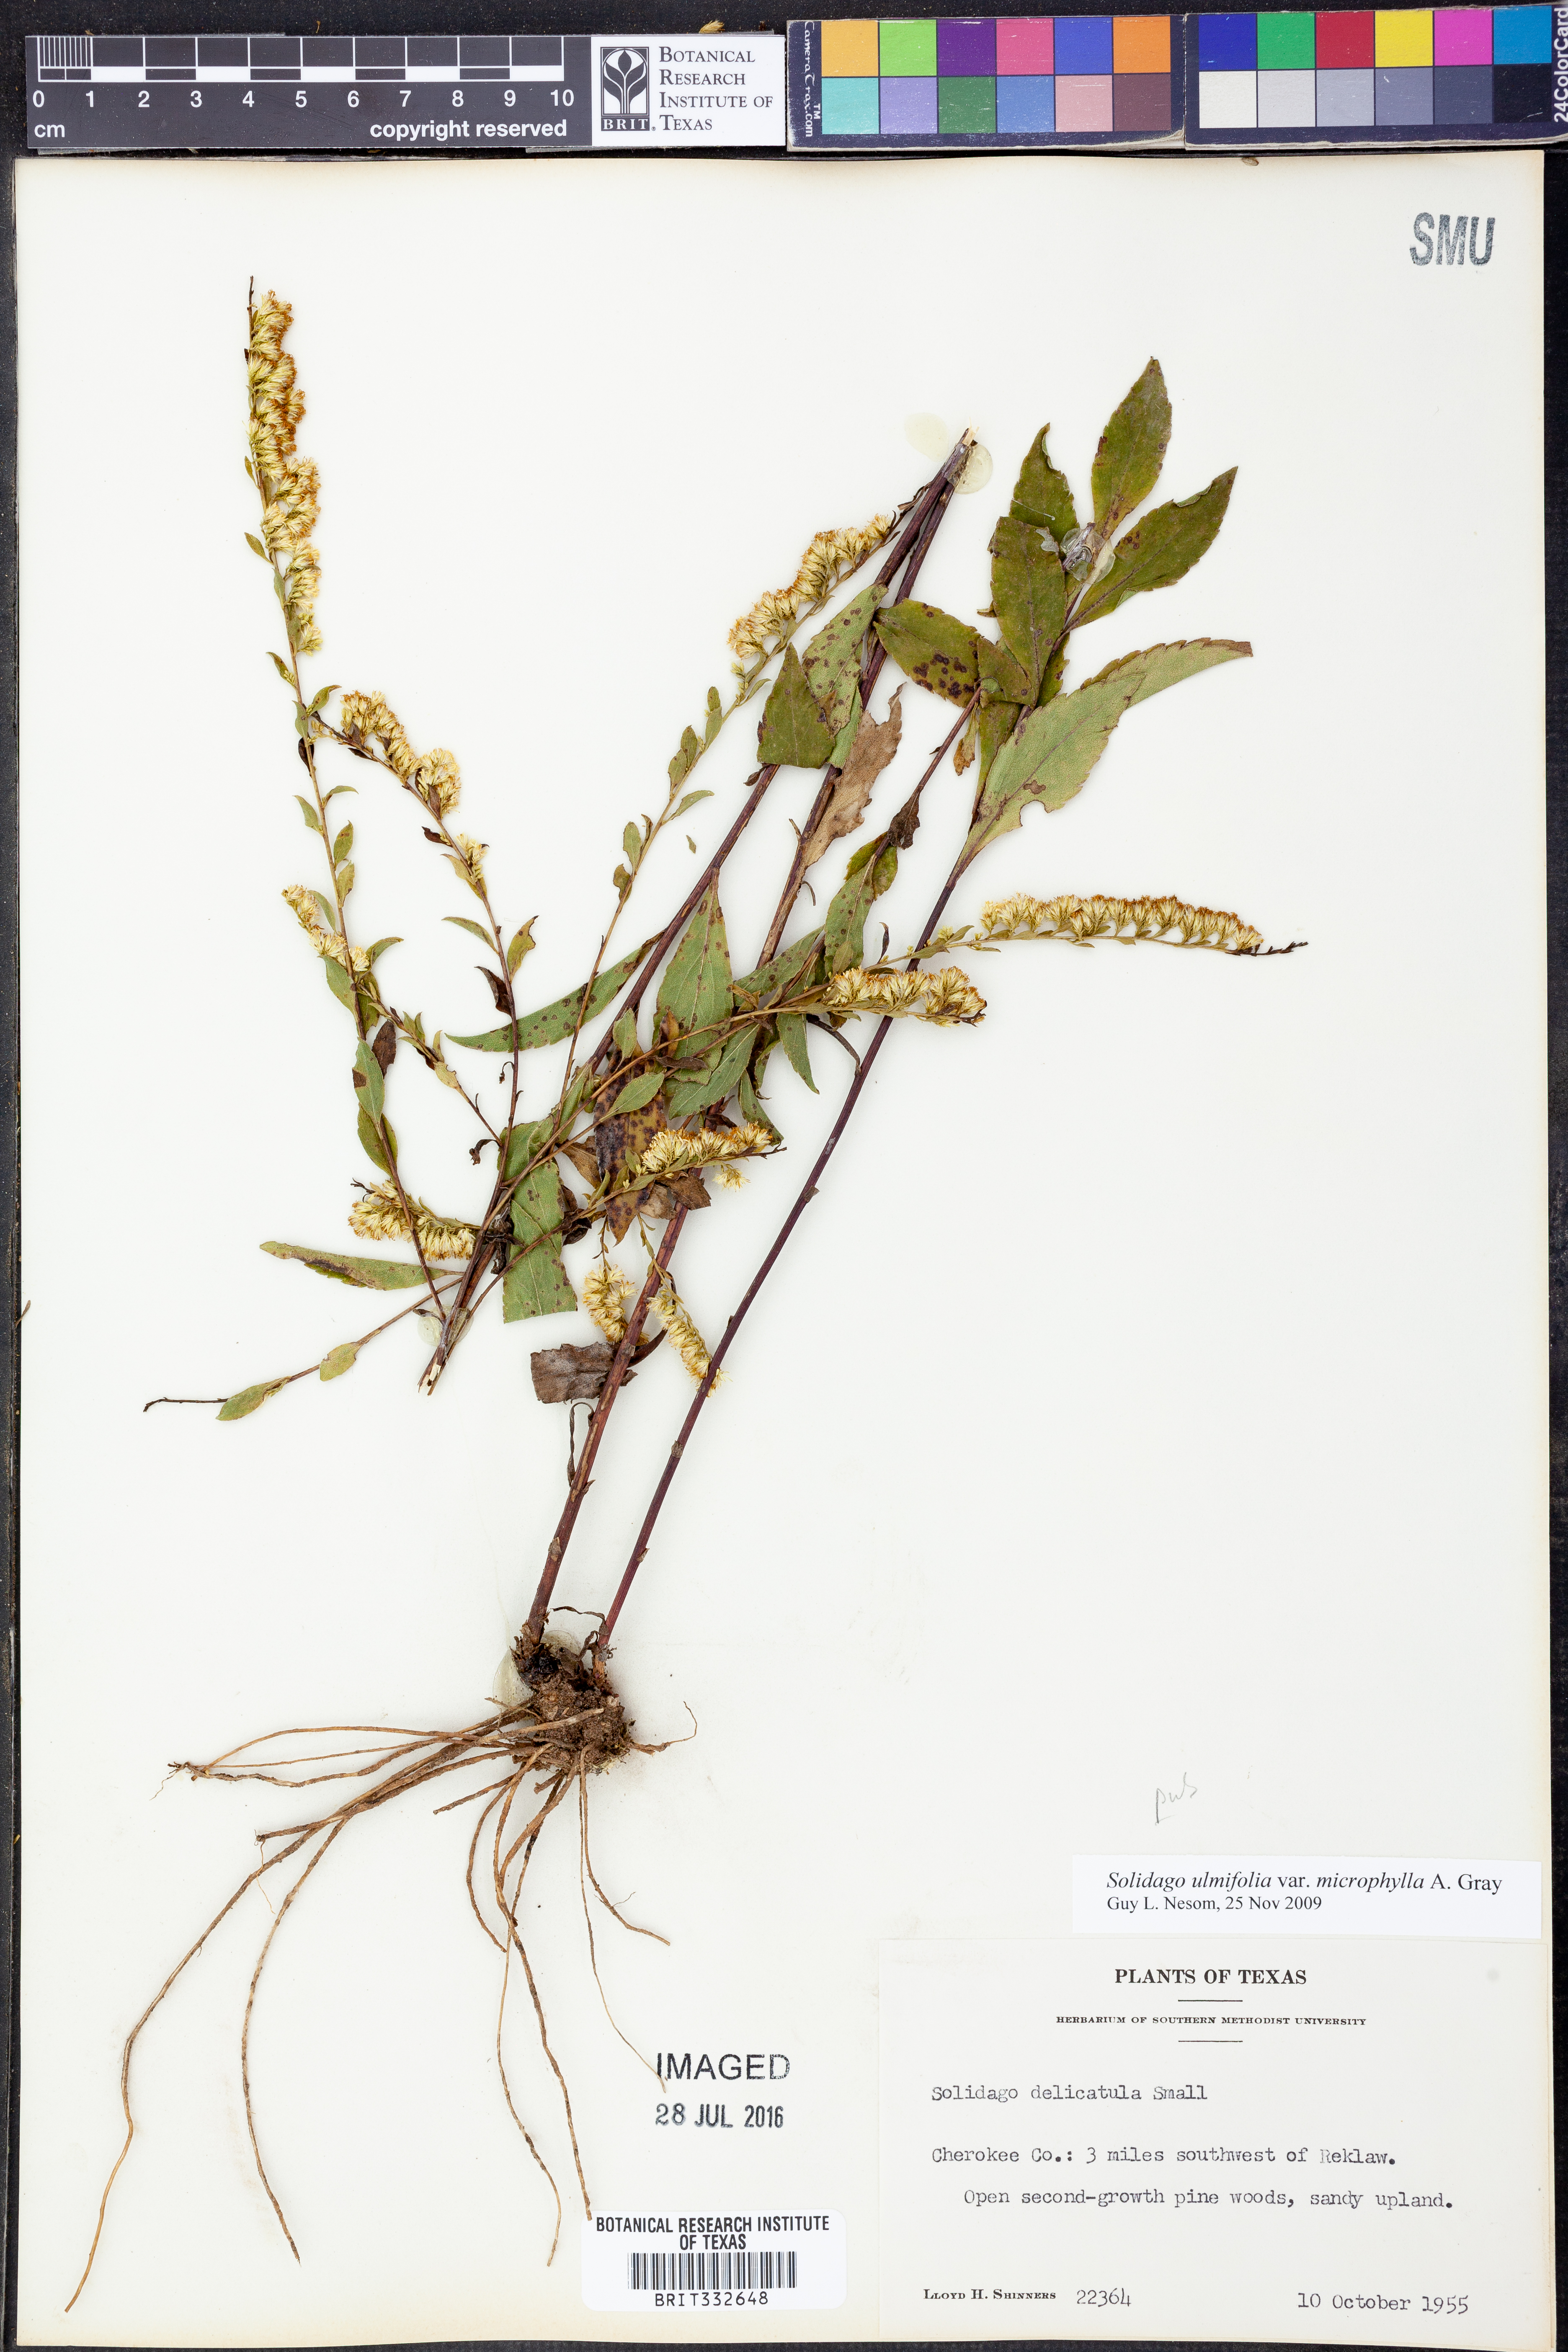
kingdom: Plantae
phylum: Tracheophyta
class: Magnoliopsida
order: Asterales
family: Asteraceae
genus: Solidago
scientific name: Solidago delicatula
